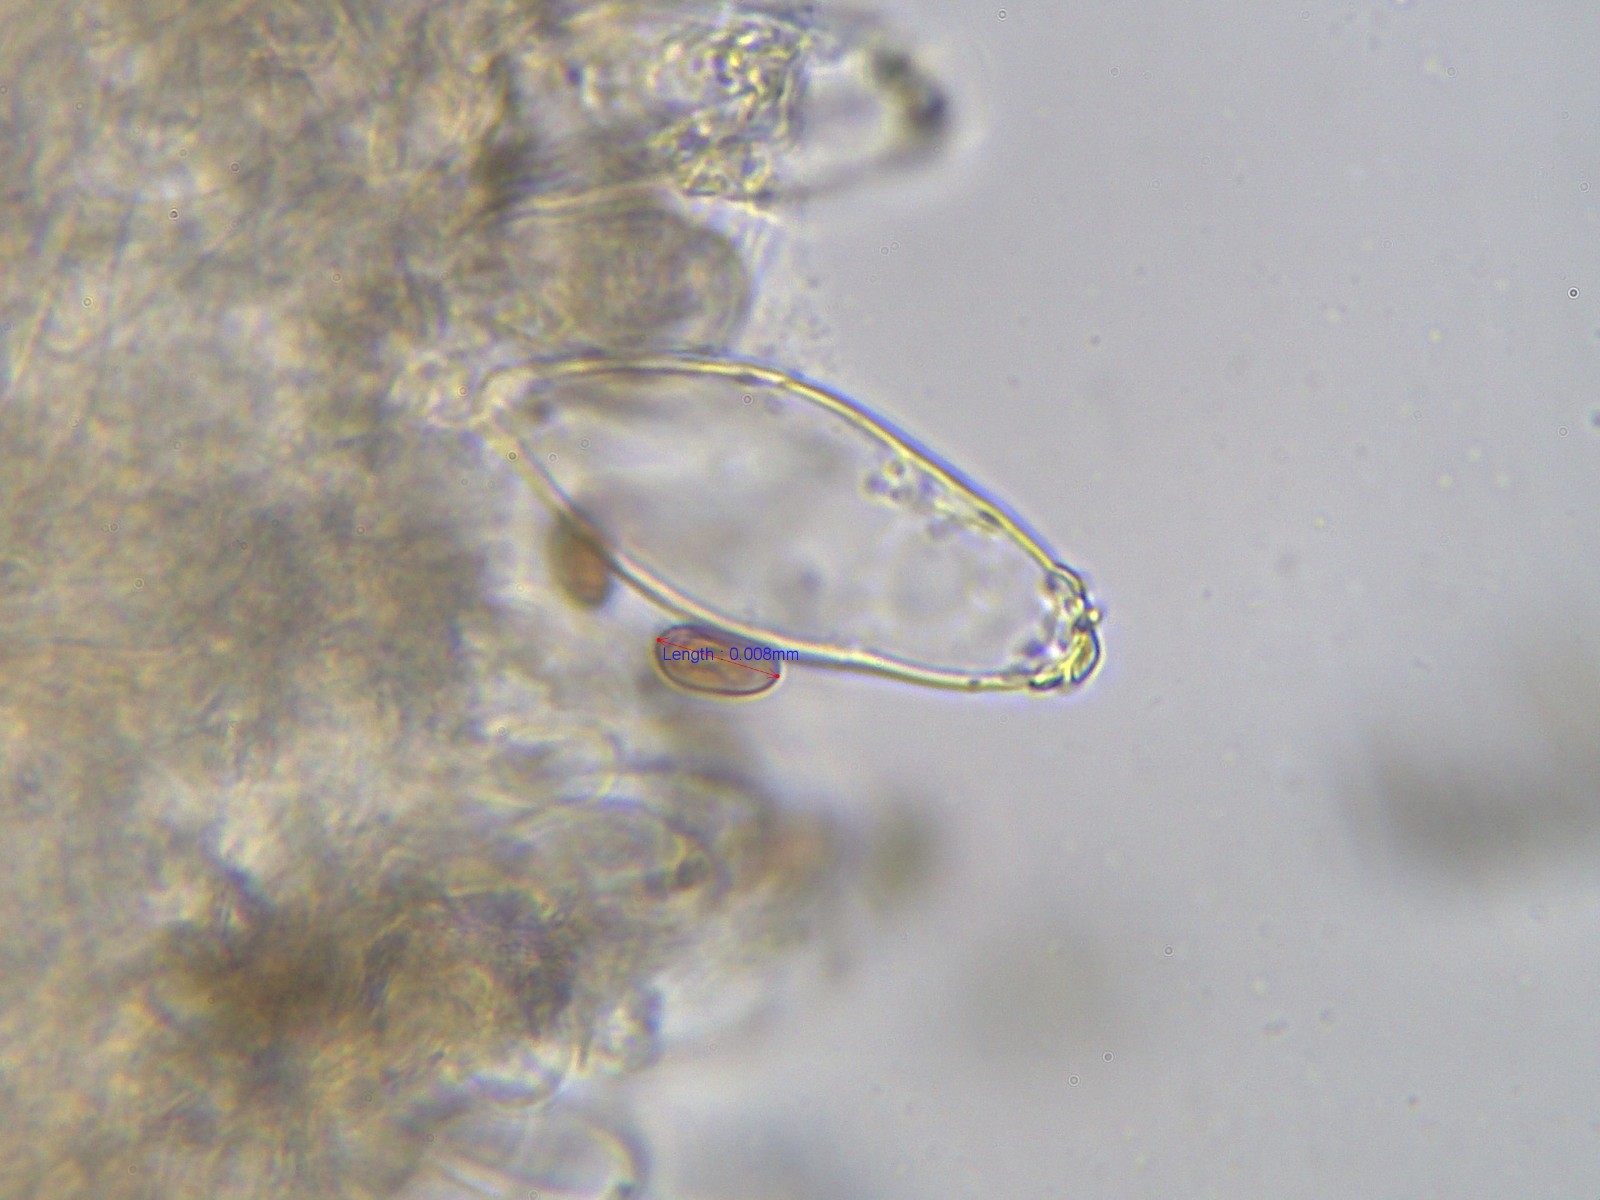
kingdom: Fungi
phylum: Basidiomycota
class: Agaricomycetes
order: Agaricales
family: Psathyrellaceae
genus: Homophron
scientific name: Homophron cernuum
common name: hvidlig mørkhat
